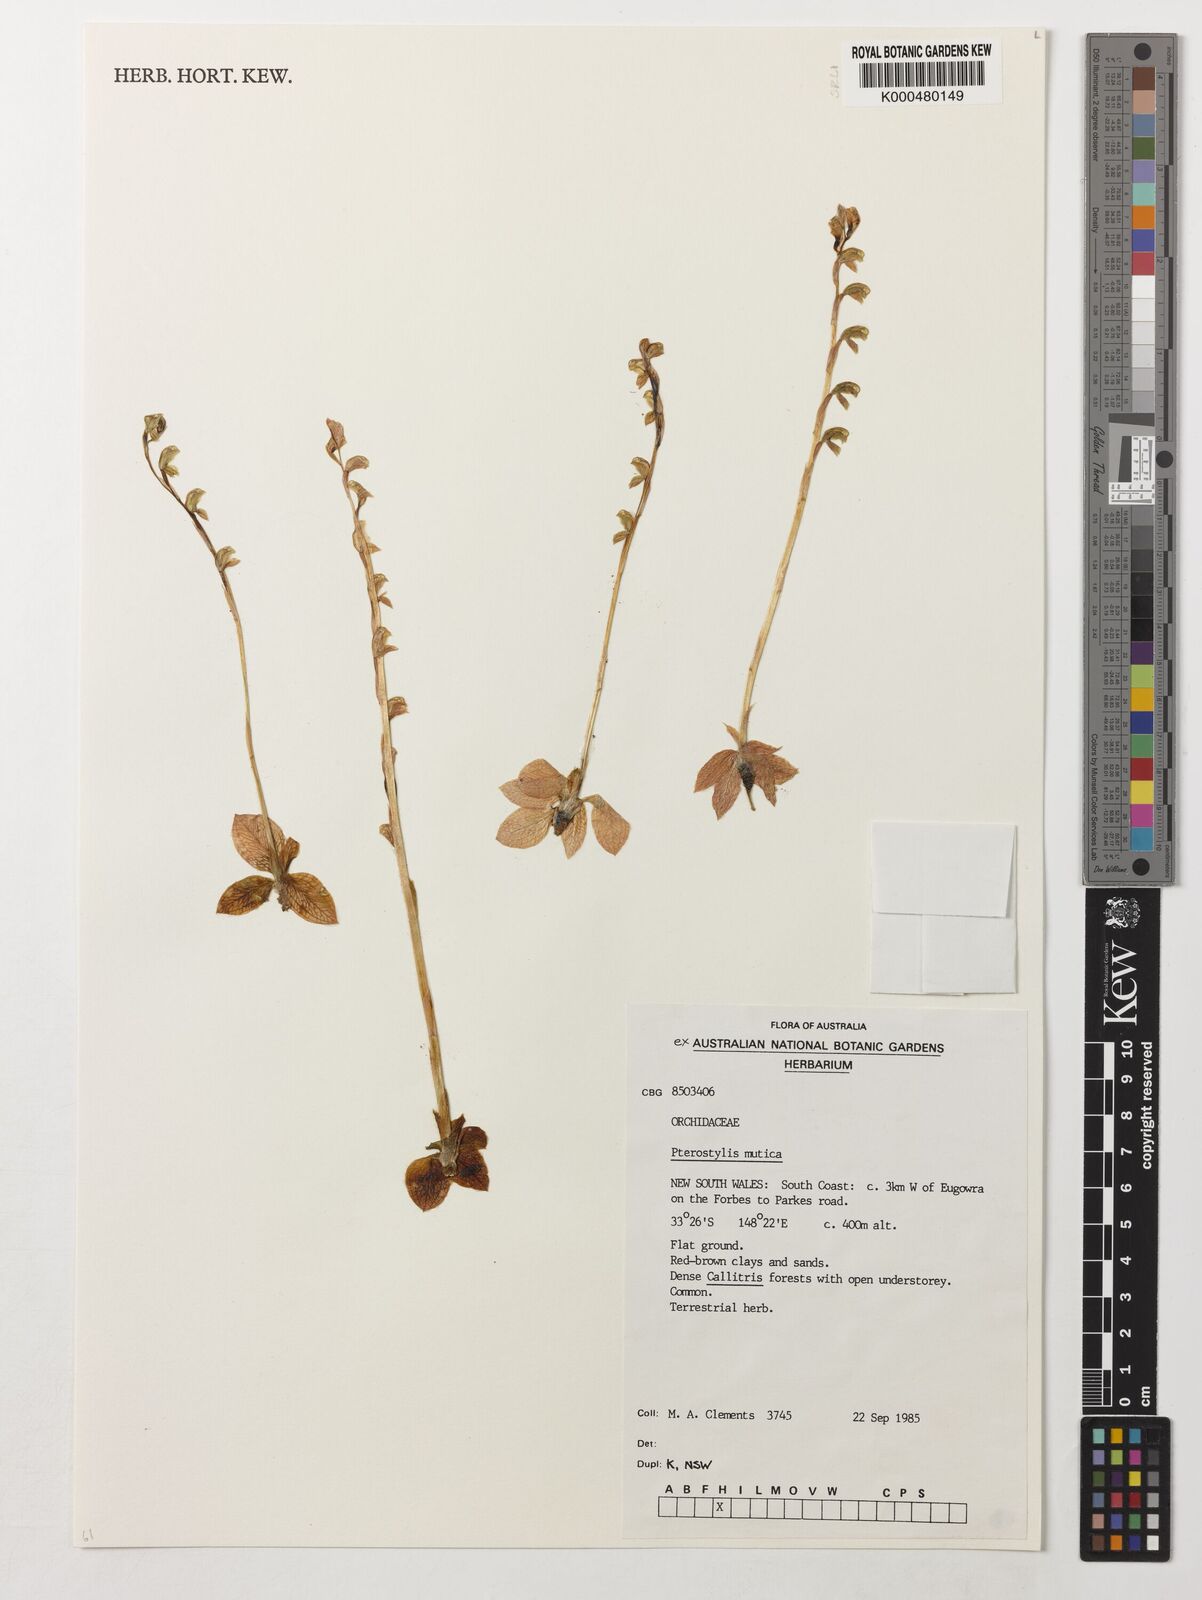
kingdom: Plantae
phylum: Tracheophyta
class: Liliopsida
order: Asparagales
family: Orchidaceae
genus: Pterostylis
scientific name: Pterostylis mutica
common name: Midget greenhood
